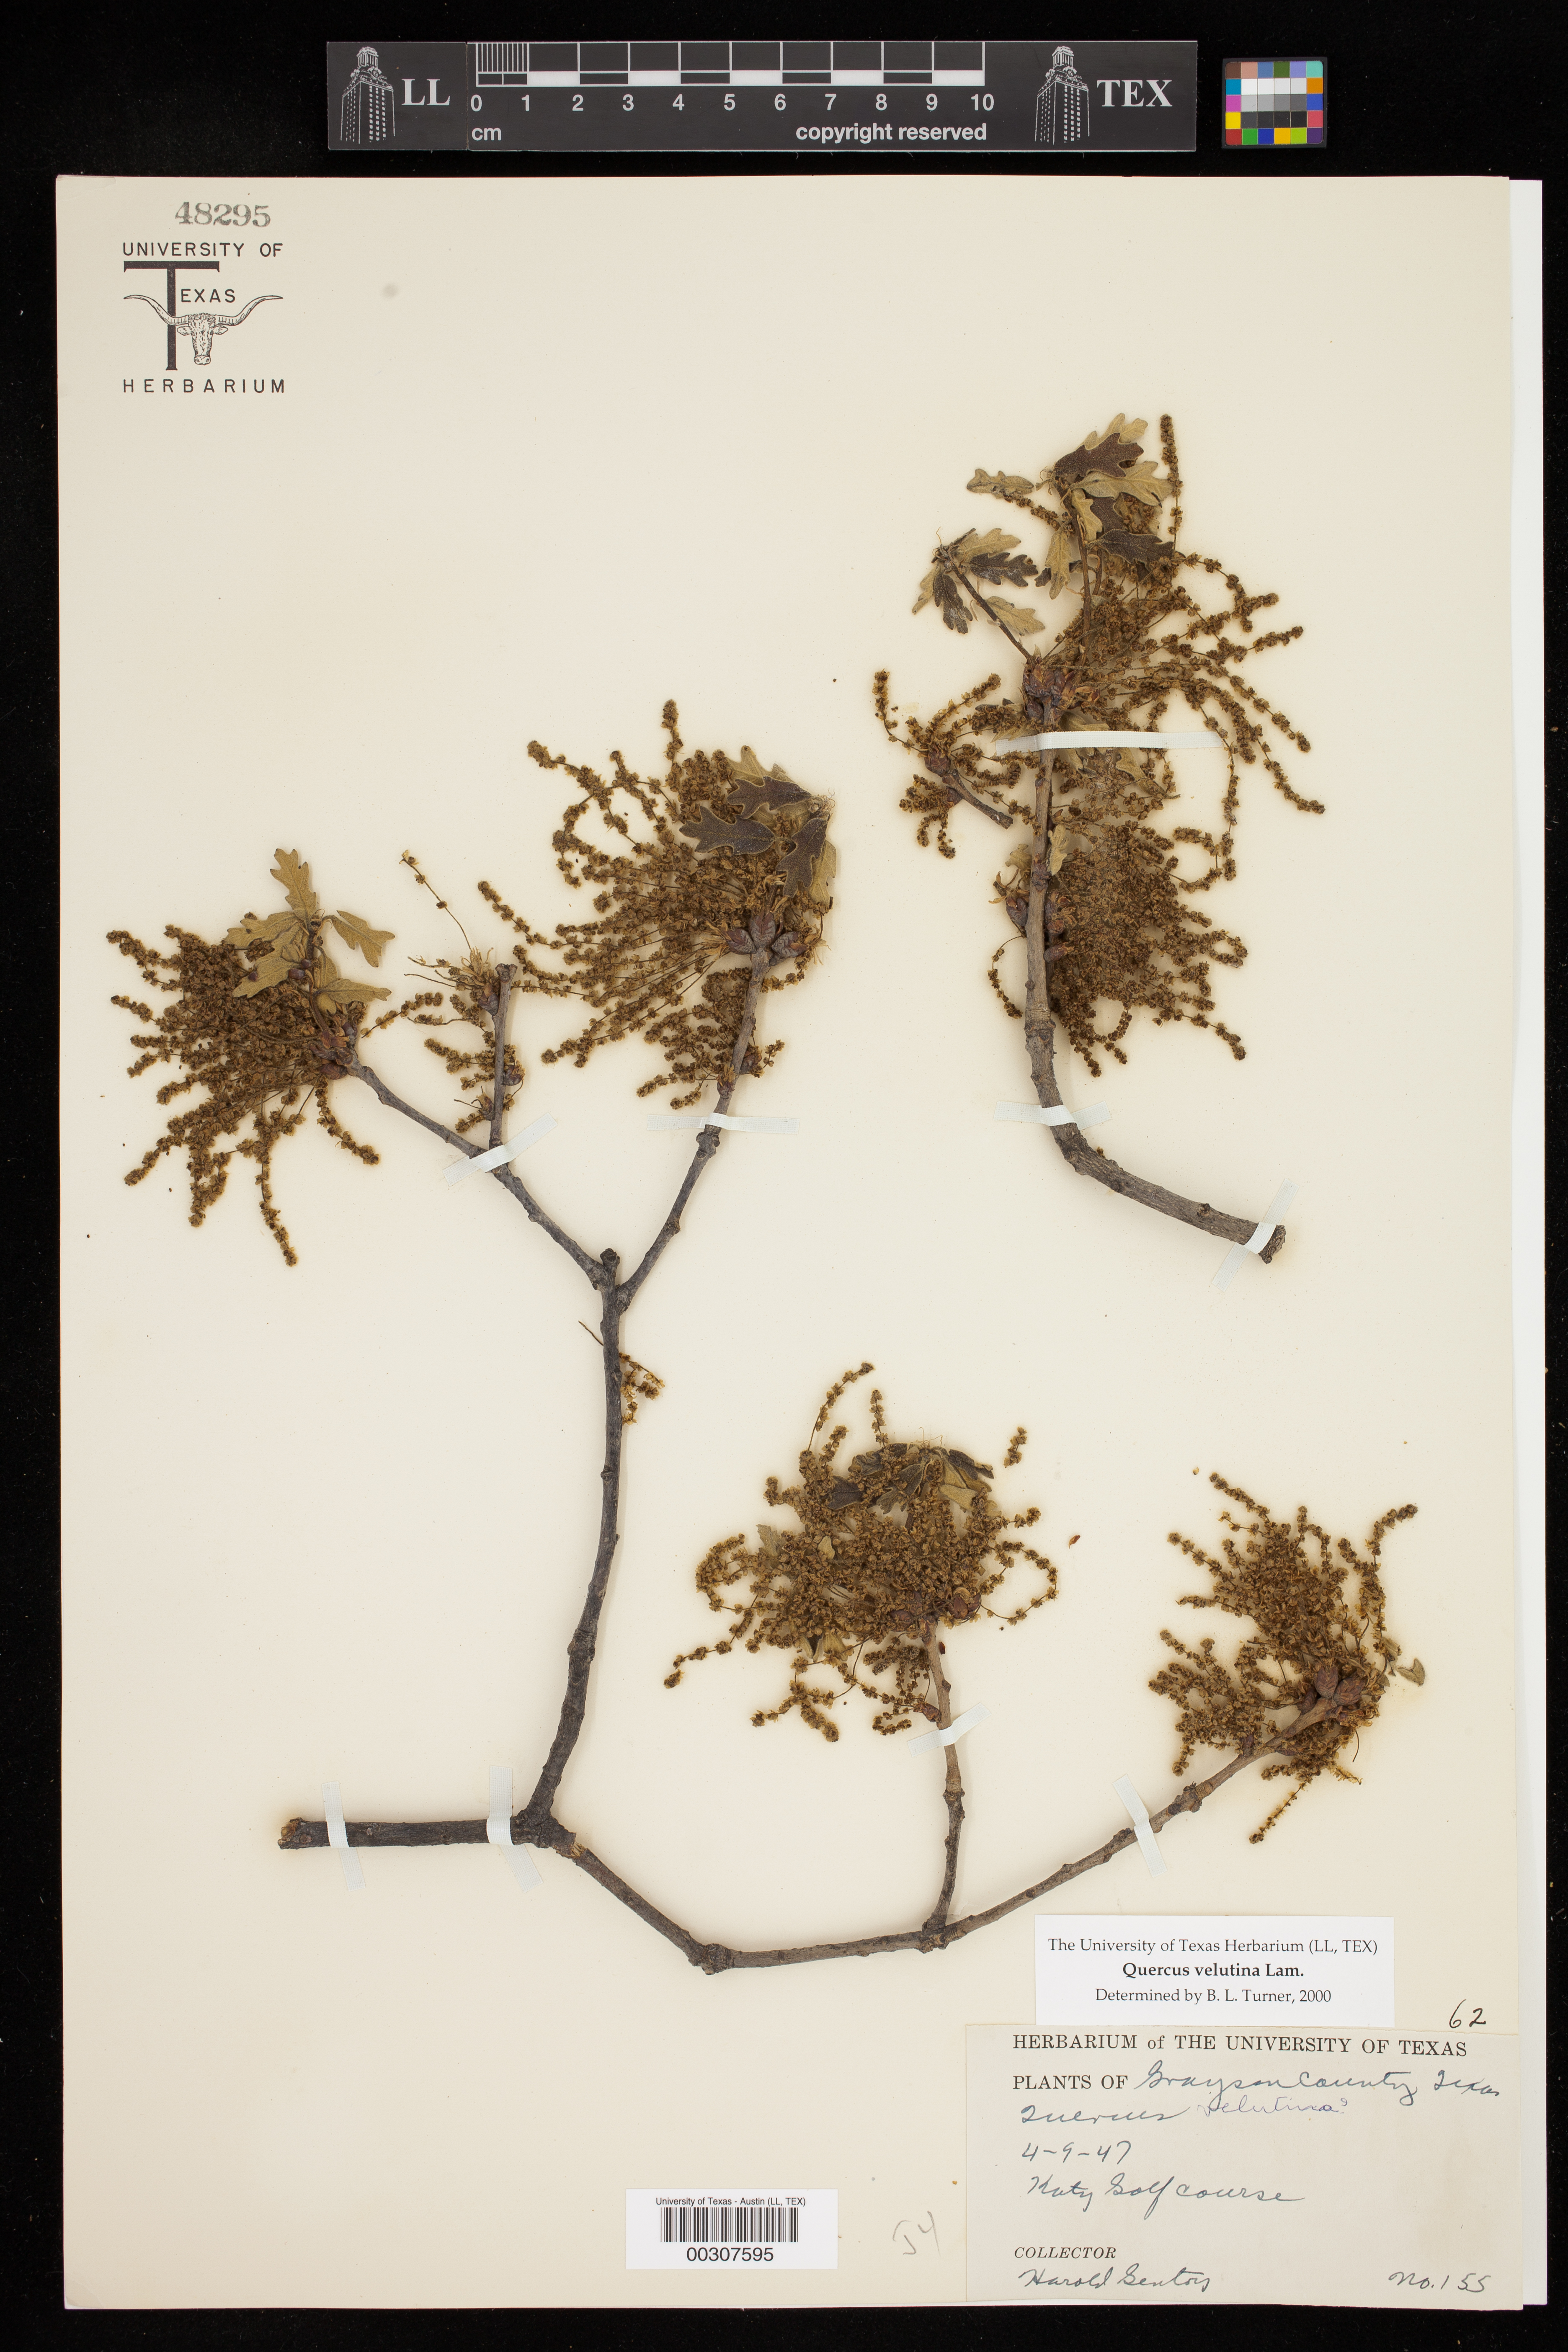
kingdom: Plantae
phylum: Tracheophyta
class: Magnoliopsida
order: Fagales
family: Fagaceae
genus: Quercus
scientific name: Quercus velutina
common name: Black oak
